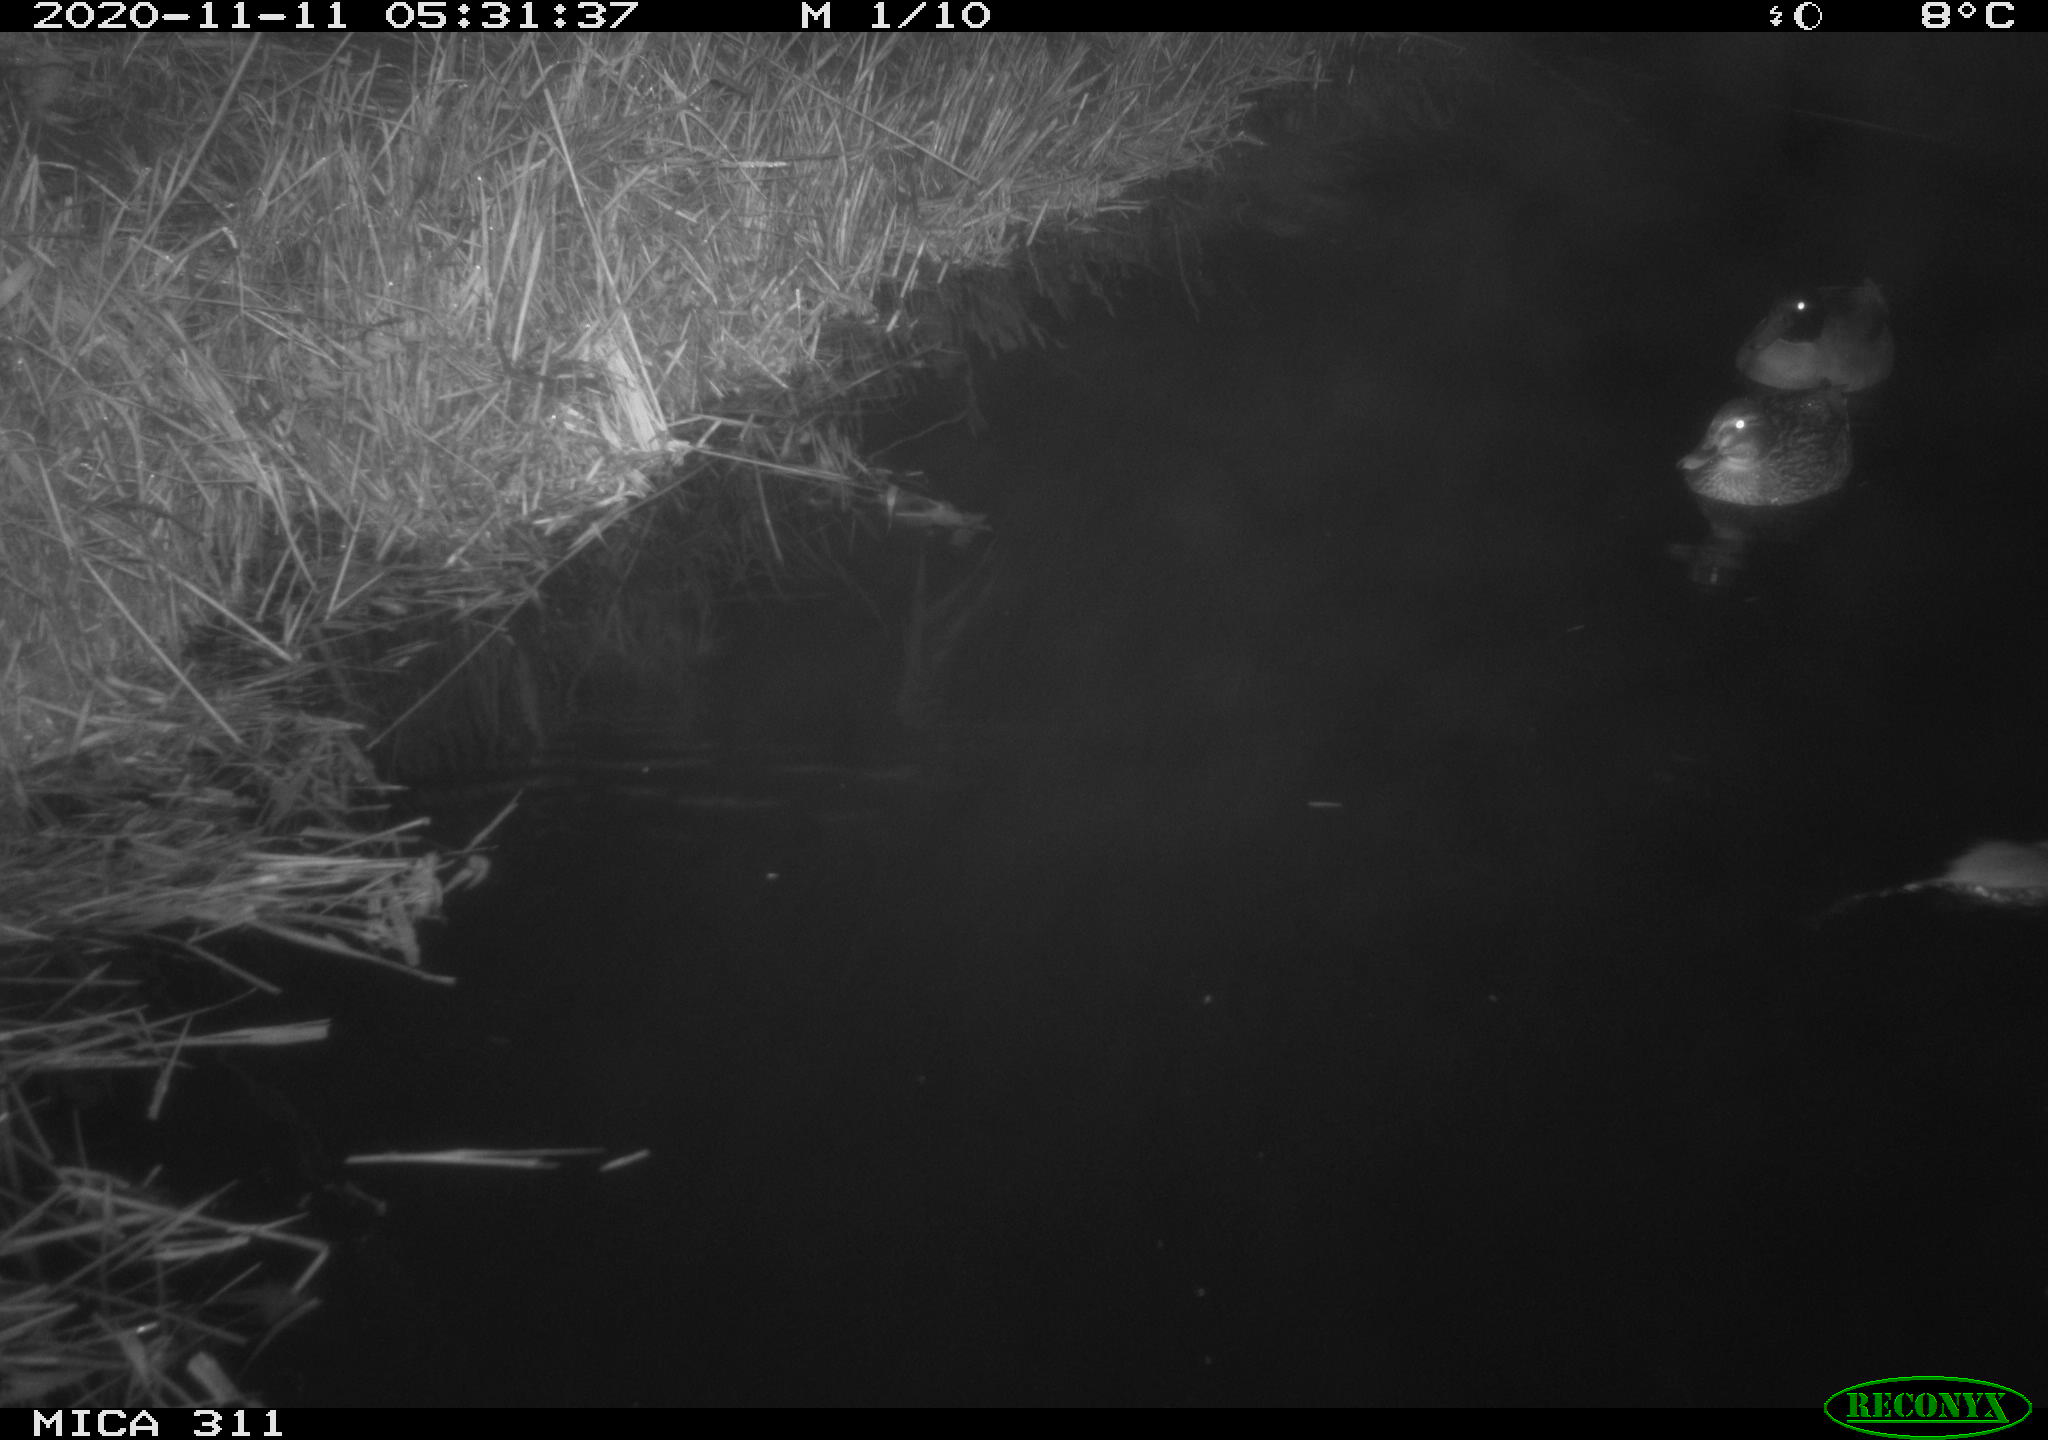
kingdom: Animalia
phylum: Chordata
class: Aves
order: Anseriformes
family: Anatidae
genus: Anas
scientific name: Anas platyrhynchos
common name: Mallard
